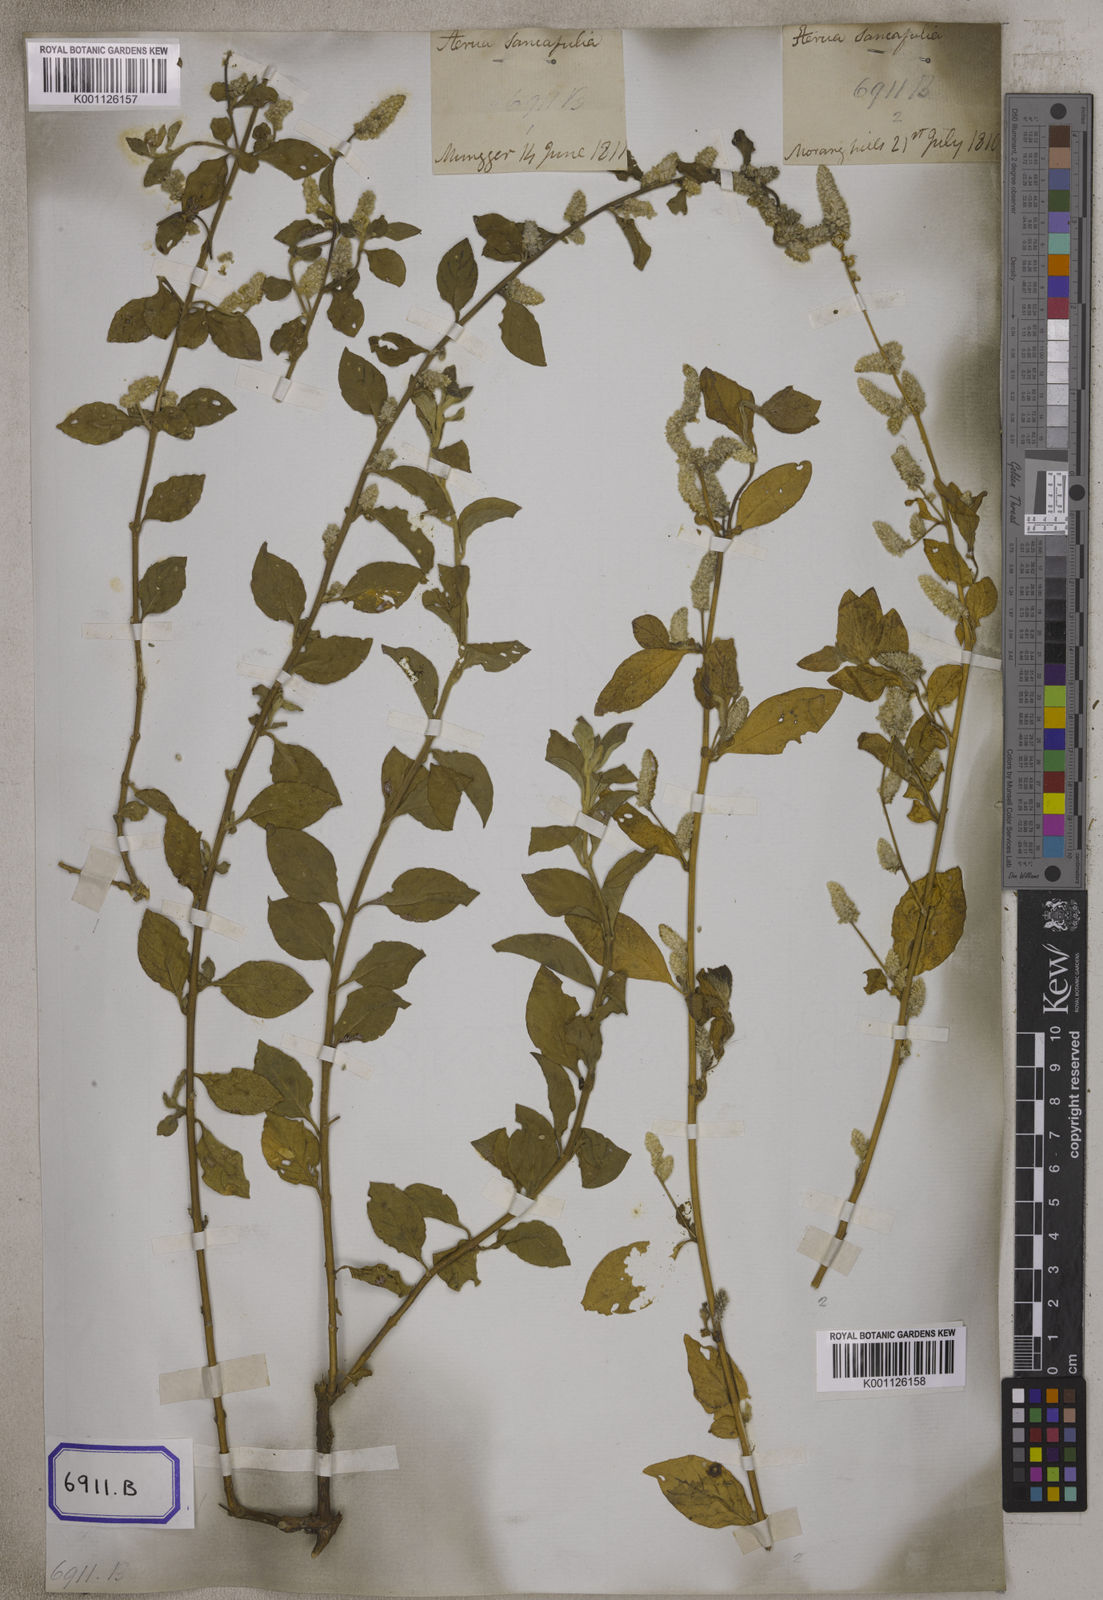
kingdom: Plantae
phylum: Tracheophyta
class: Magnoliopsida
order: Caryophyllales
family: Amaranthaceae
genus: Ouret
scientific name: Ouret sanguinolenta
